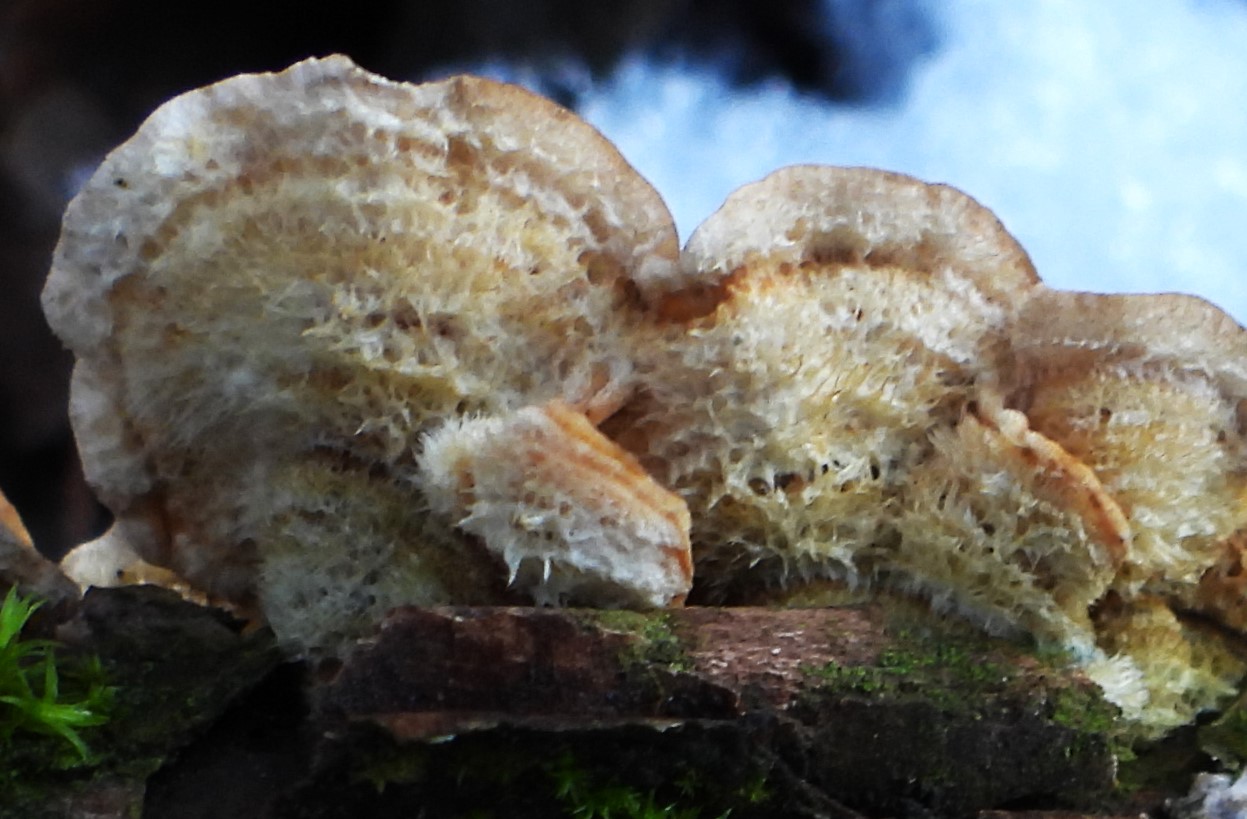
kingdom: Fungi
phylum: Basidiomycota
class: Agaricomycetes
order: Russulales
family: Stereaceae
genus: Stereum
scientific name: Stereum hirsutum
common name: håret lædersvamp
